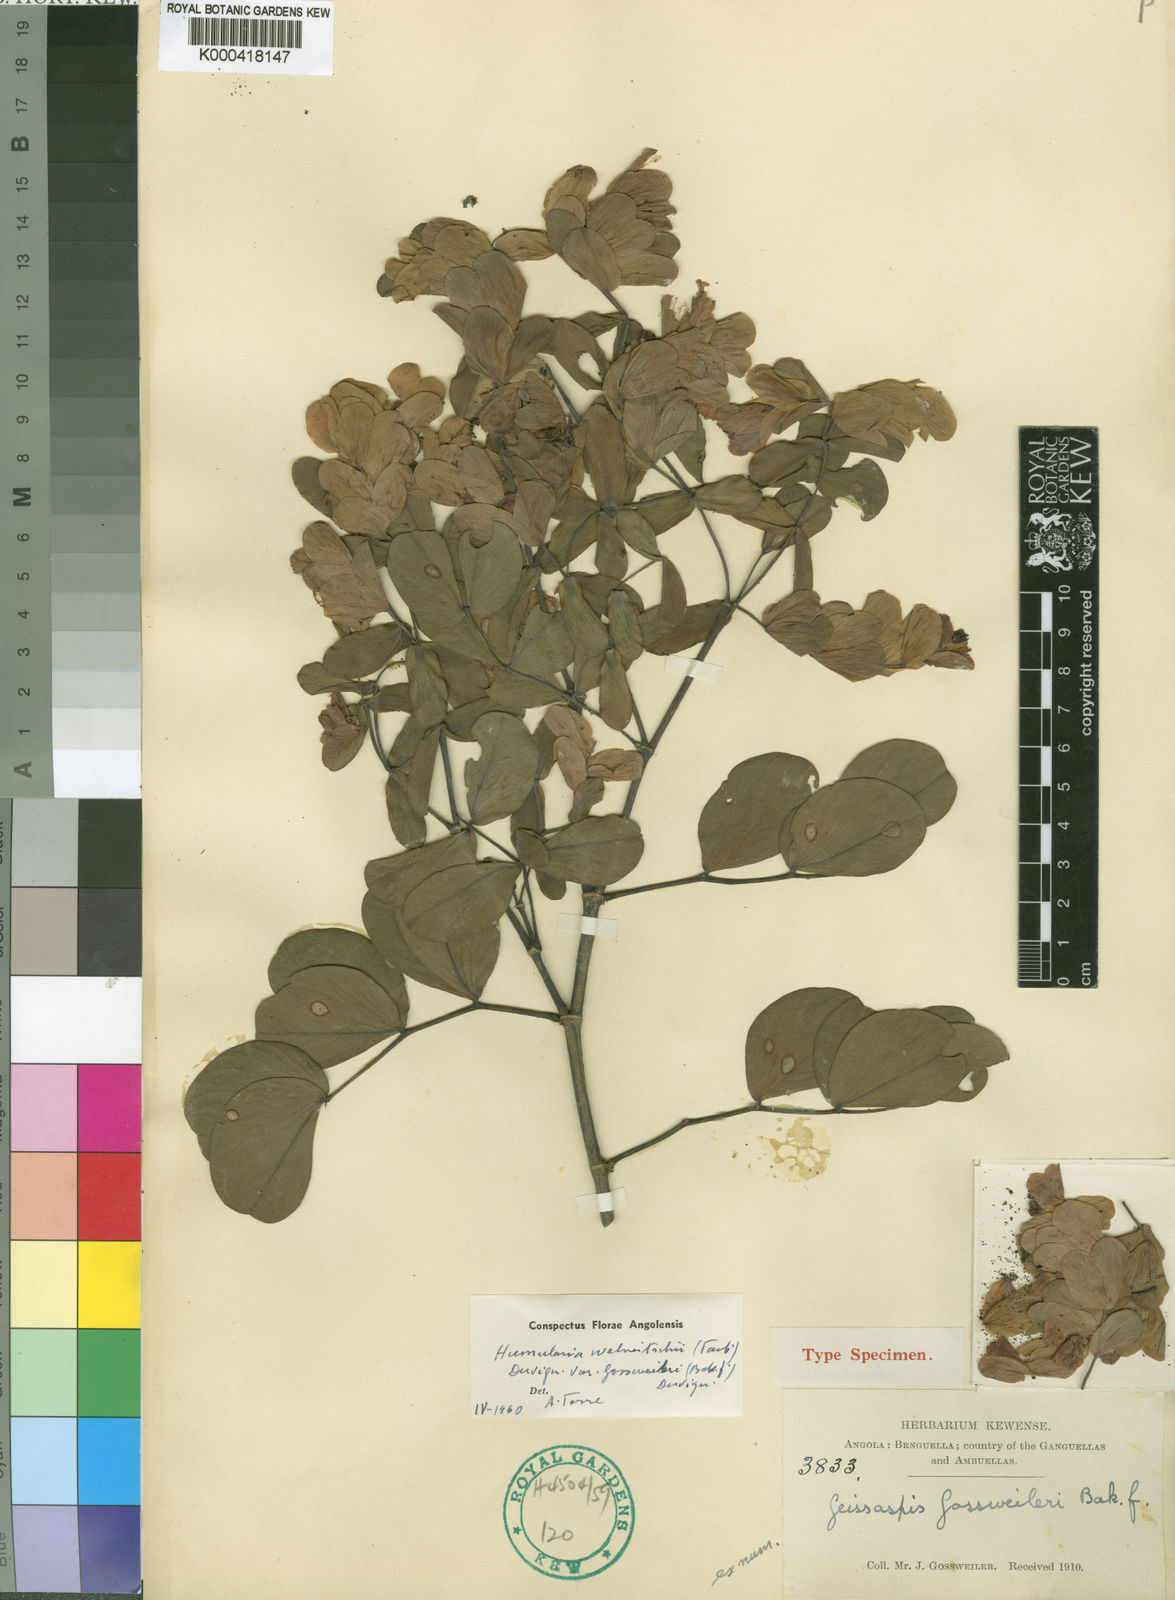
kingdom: Plantae
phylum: Tracheophyta
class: Magnoliopsida
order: Fabales
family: Fabaceae
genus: Humularia
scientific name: Humularia welwitschii
